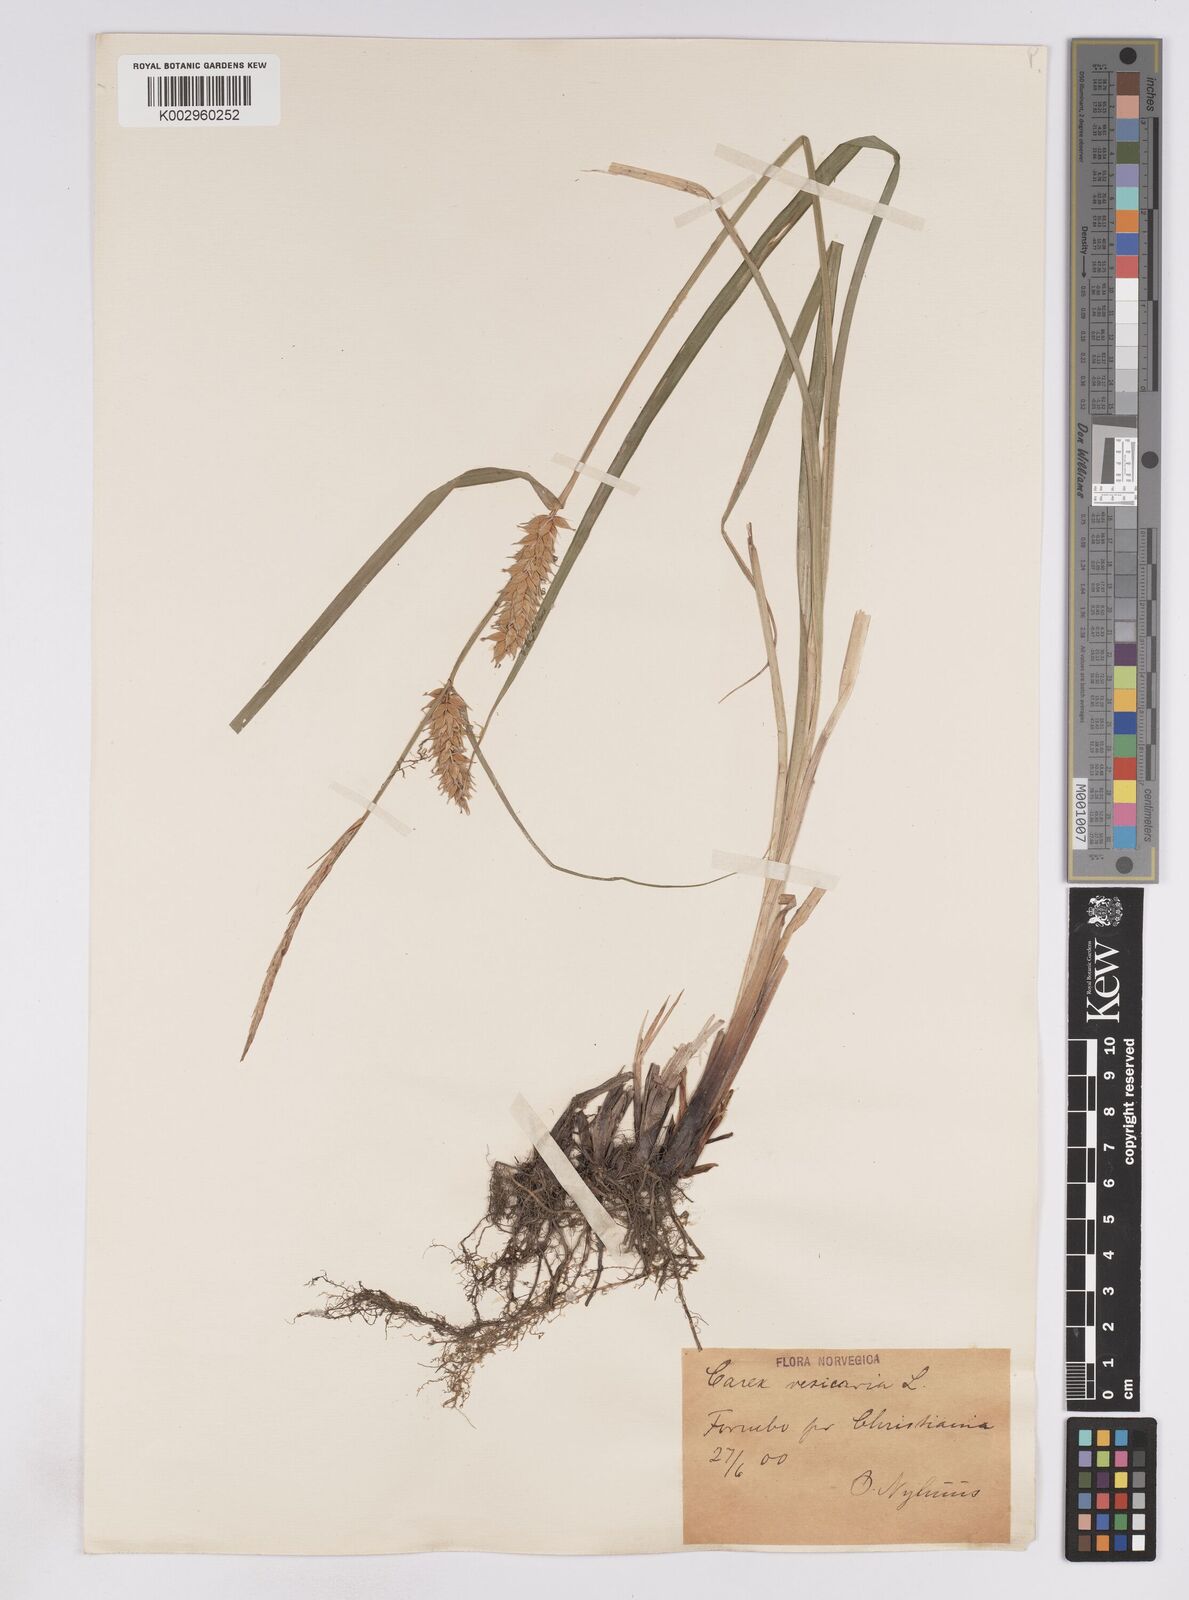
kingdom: Plantae
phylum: Tracheophyta
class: Liliopsida
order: Poales
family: Cyperaceae
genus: Carex
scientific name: Carex vesicaria
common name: Bladder-sedge
